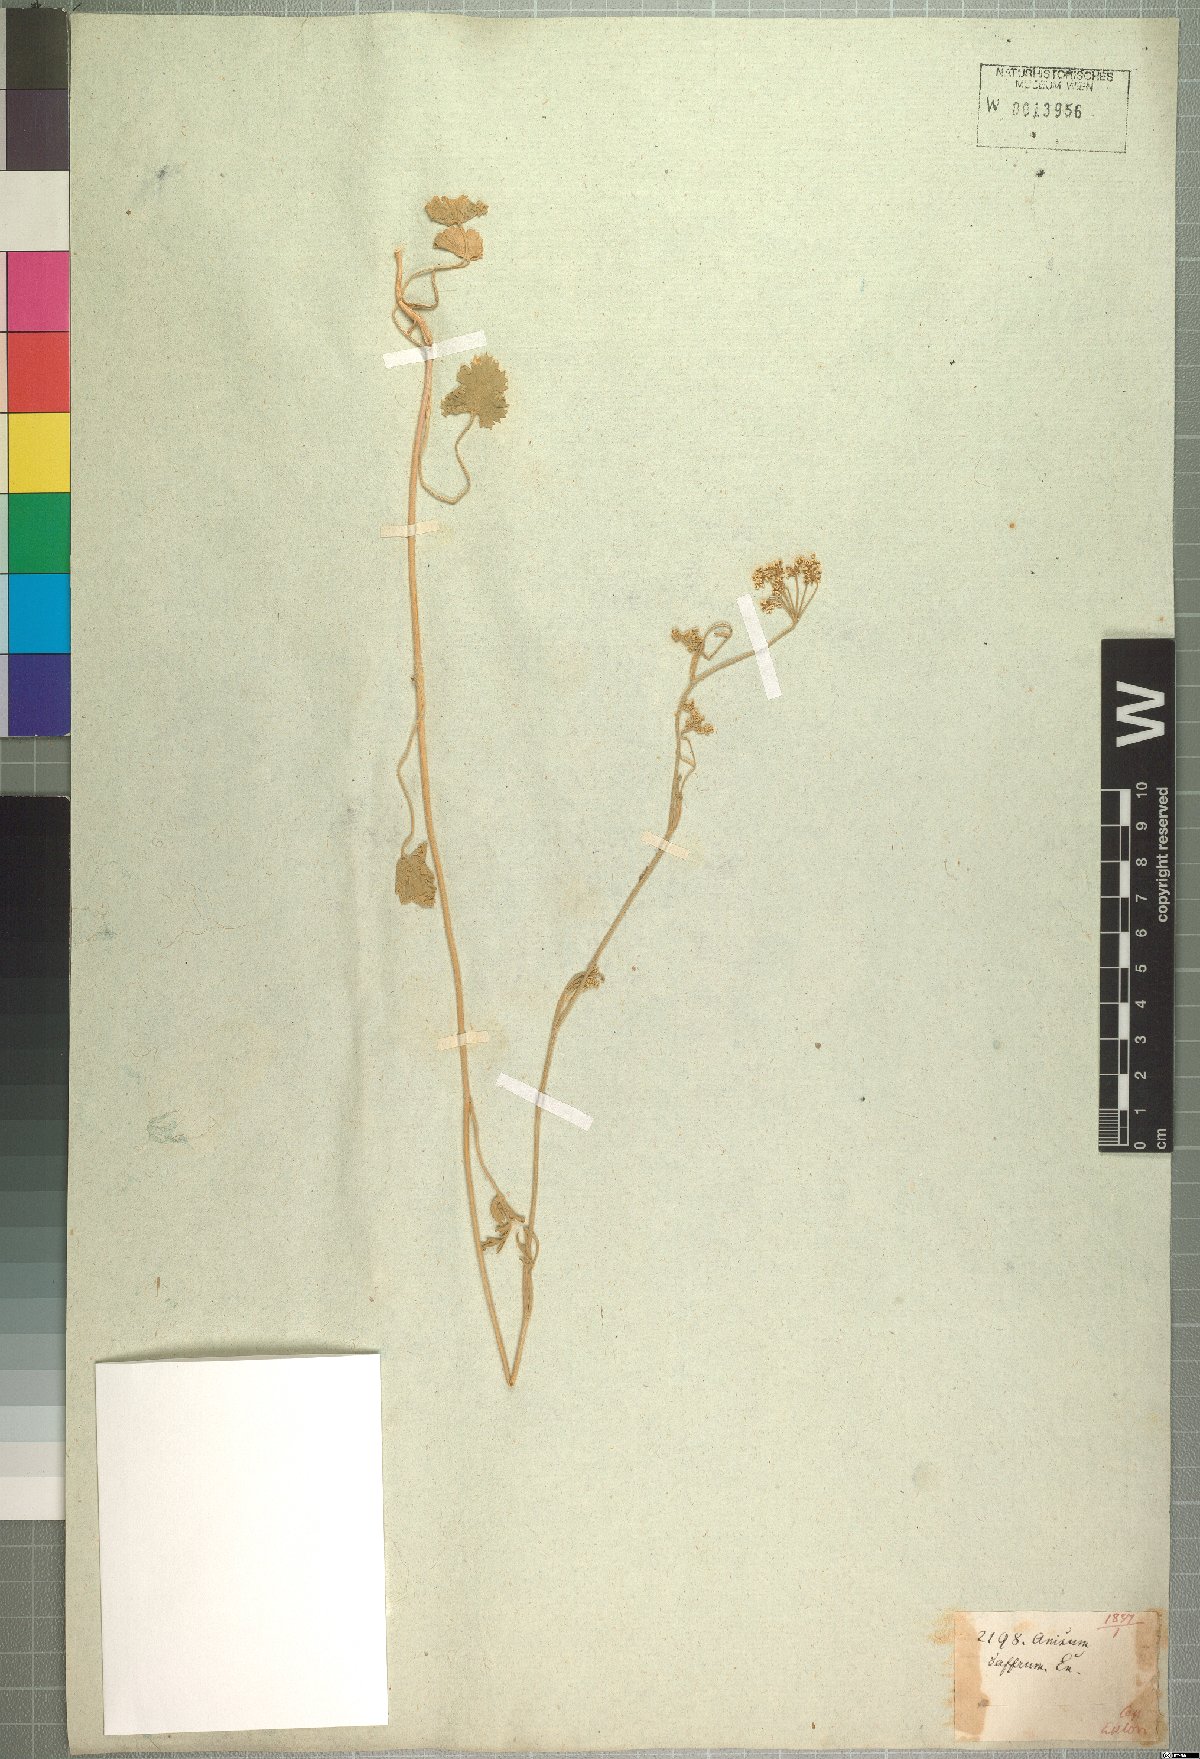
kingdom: Plantae
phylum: Tracheophyta
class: Magnoliopsida
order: Apiales
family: Apiaceae
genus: Pimpinella
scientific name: Pimpinella caffra
